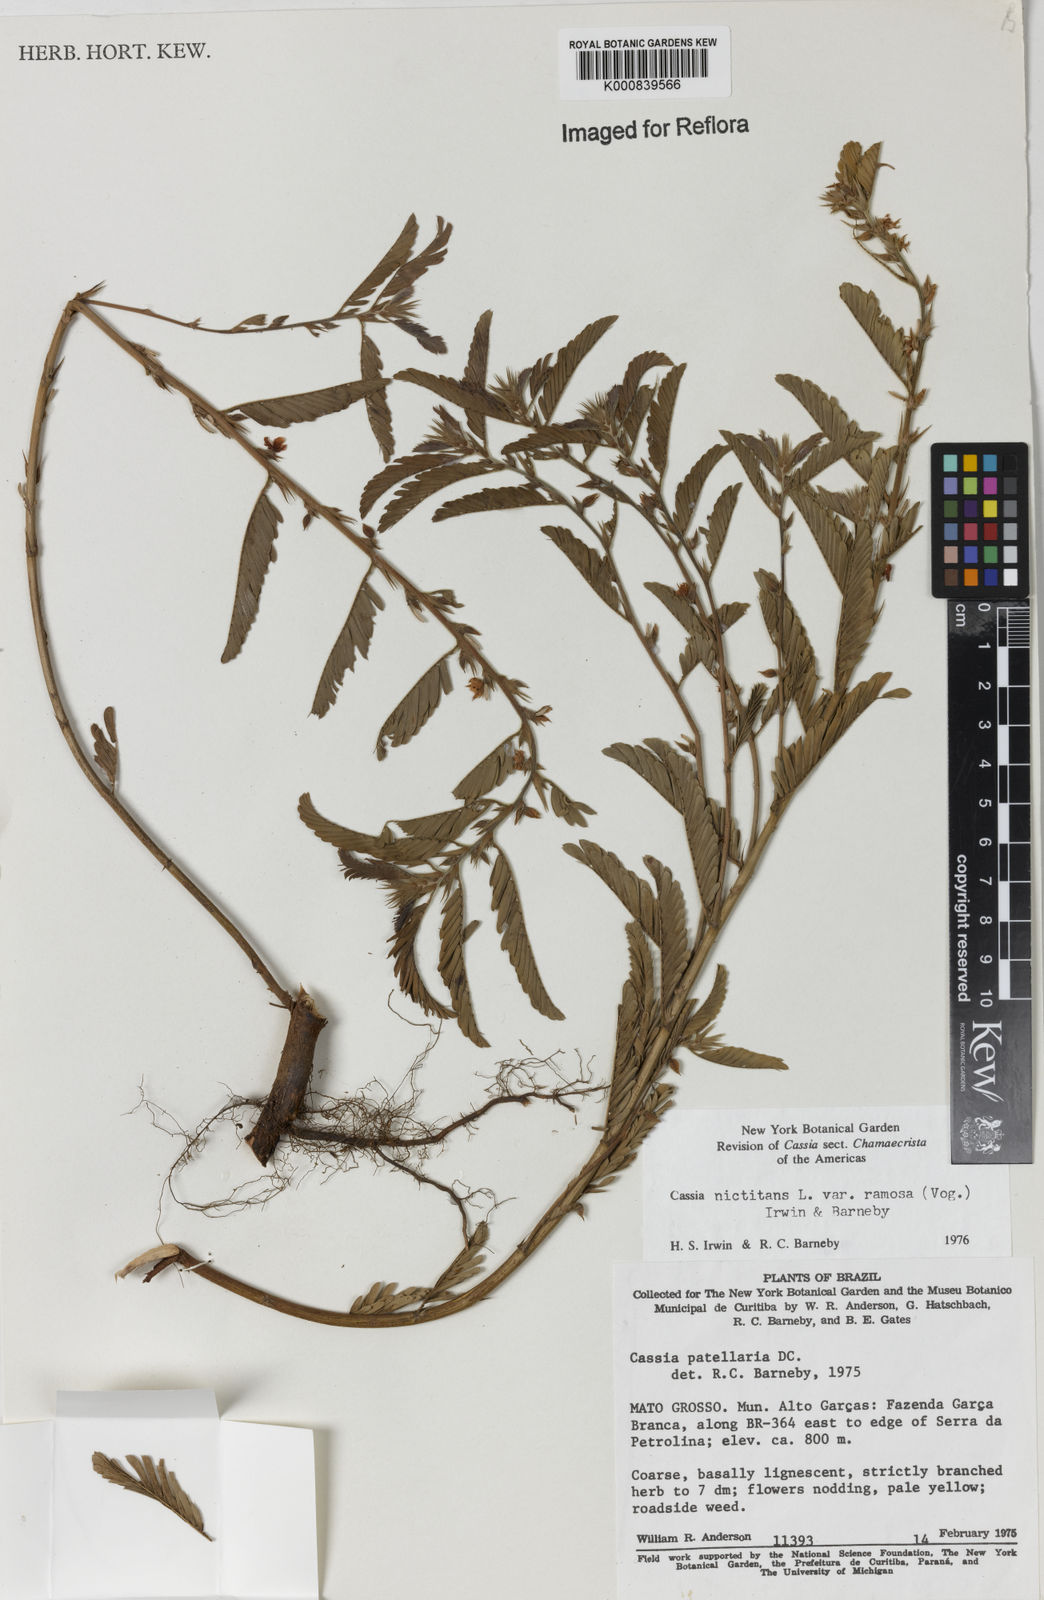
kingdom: Plantae
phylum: Tracheophyta
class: Magnoliopsida
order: Fabales
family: Fabaceae
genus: Chamaecrista
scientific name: Chamaecrista nictitans
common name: Sensitive cassia
